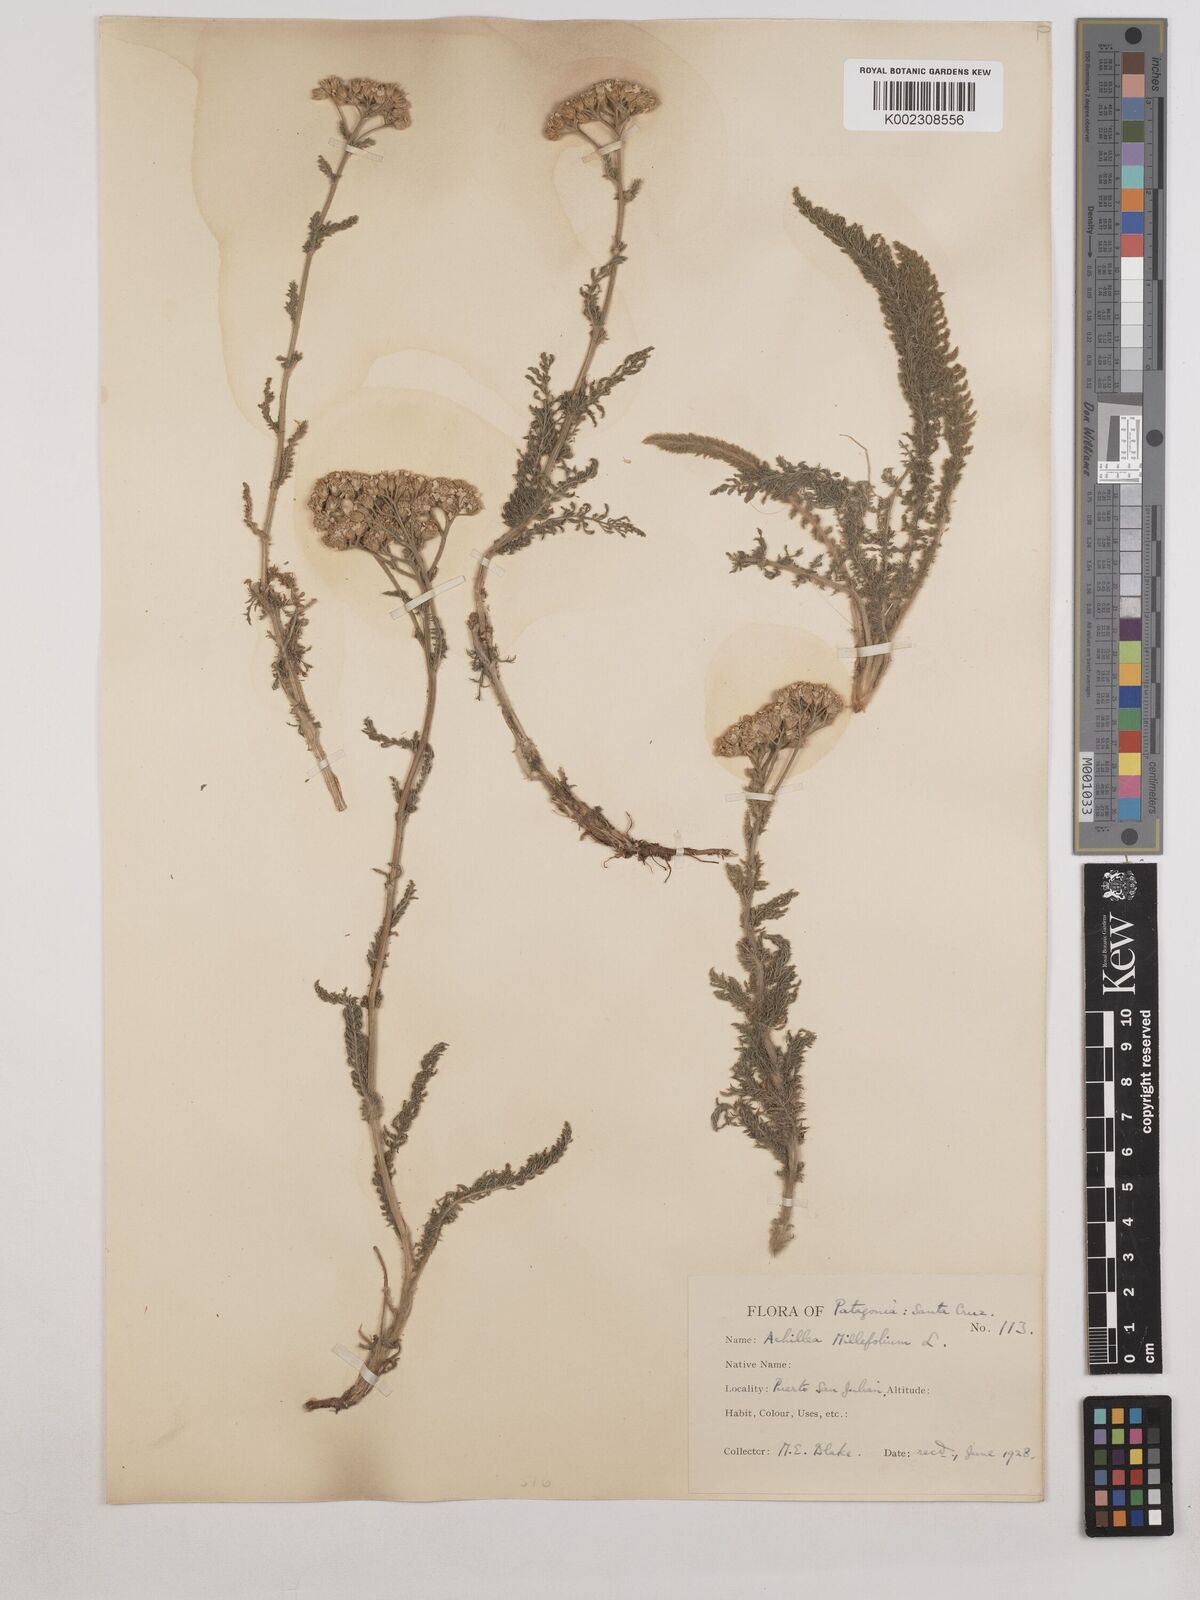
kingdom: Plantae
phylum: Tracheophyta
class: Magnoliopsida
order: Asterales
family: Asteraceae
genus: Achillea
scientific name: Achillea millefolium
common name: Yarrow
